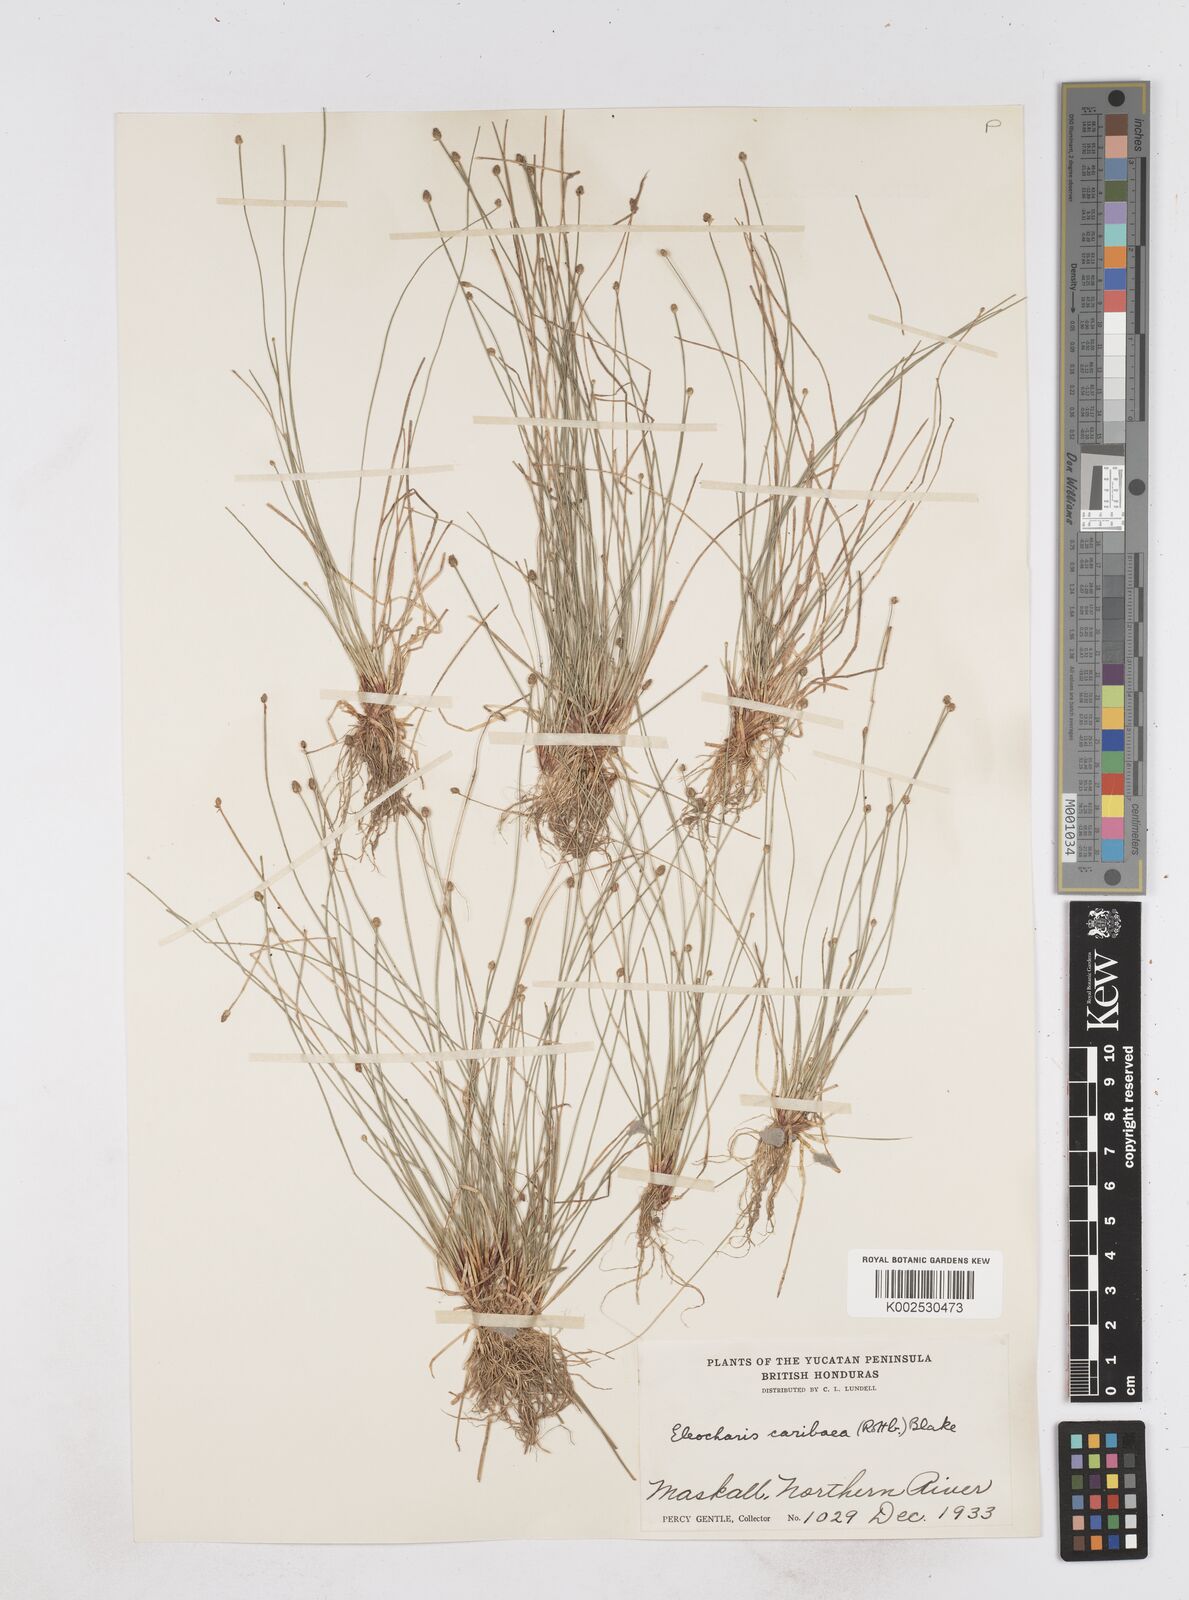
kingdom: Plantae
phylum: Tracheophyta
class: Liliopsida
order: Poales
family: Cyperaceae
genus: Eleocharis
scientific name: Eleocharis geniculata
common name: Canada spikesedge
